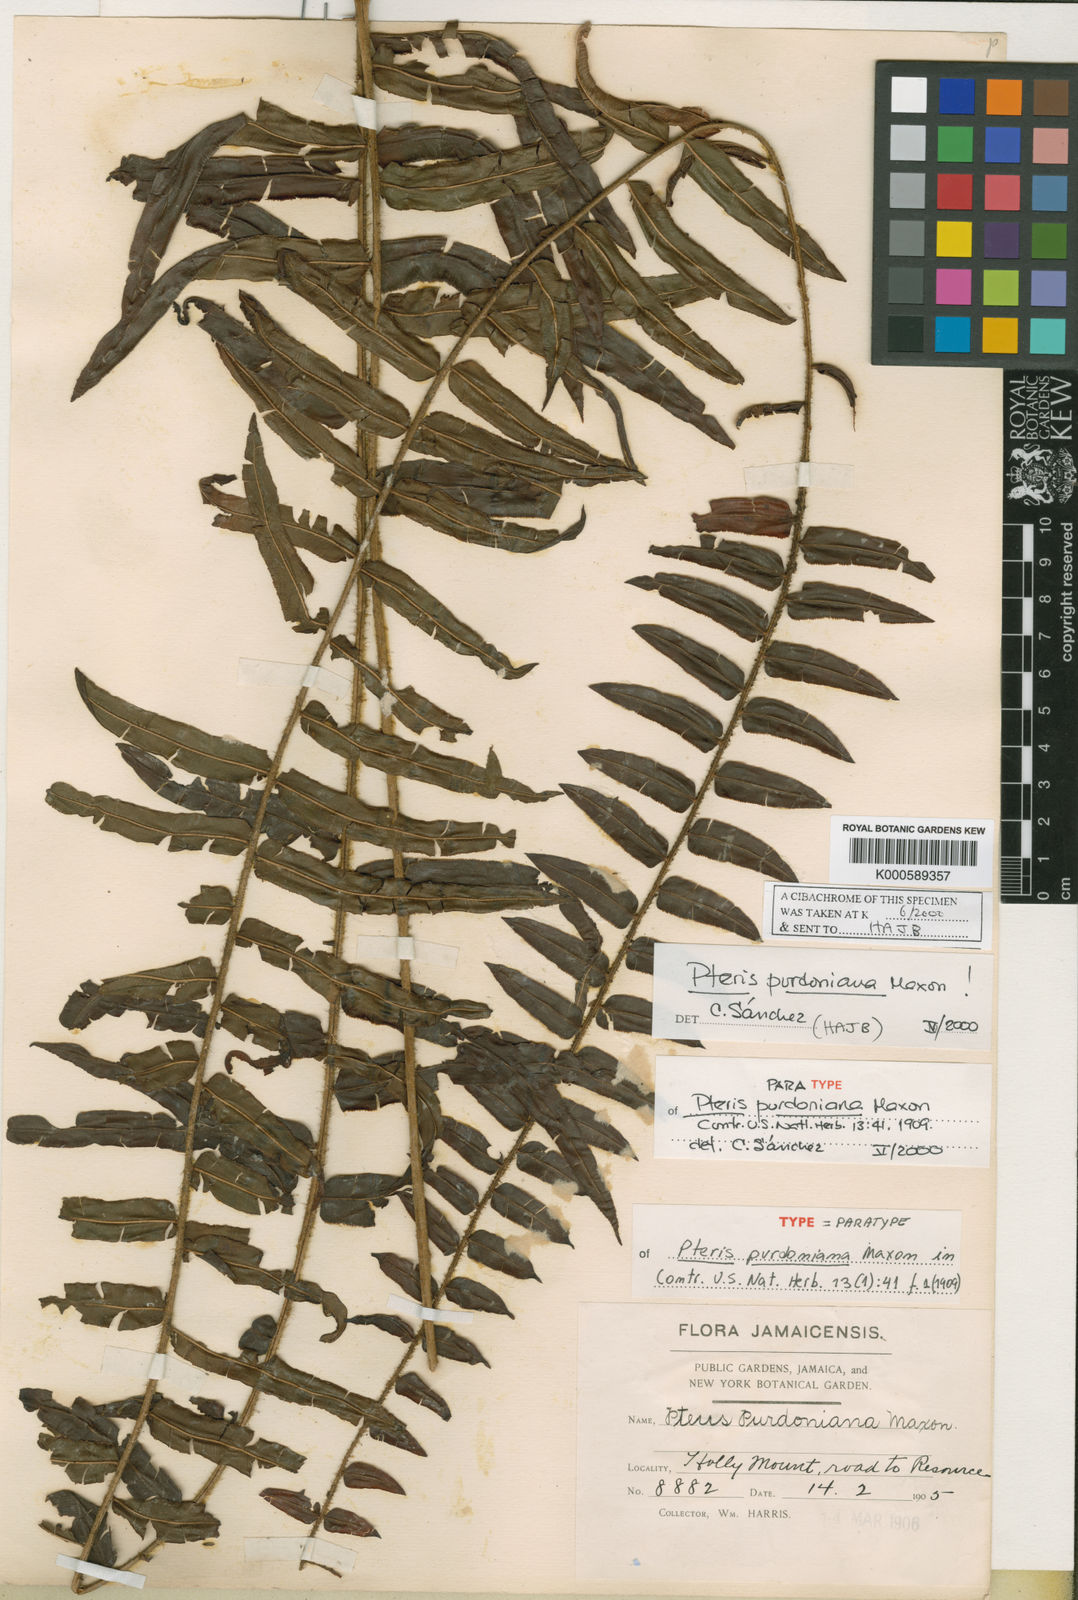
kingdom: Plantae
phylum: Tracheophyta
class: Polypodiopsida
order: Polypodiales
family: Pteridaceae
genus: Pteris
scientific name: Pteris vittata
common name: Ladder brake
